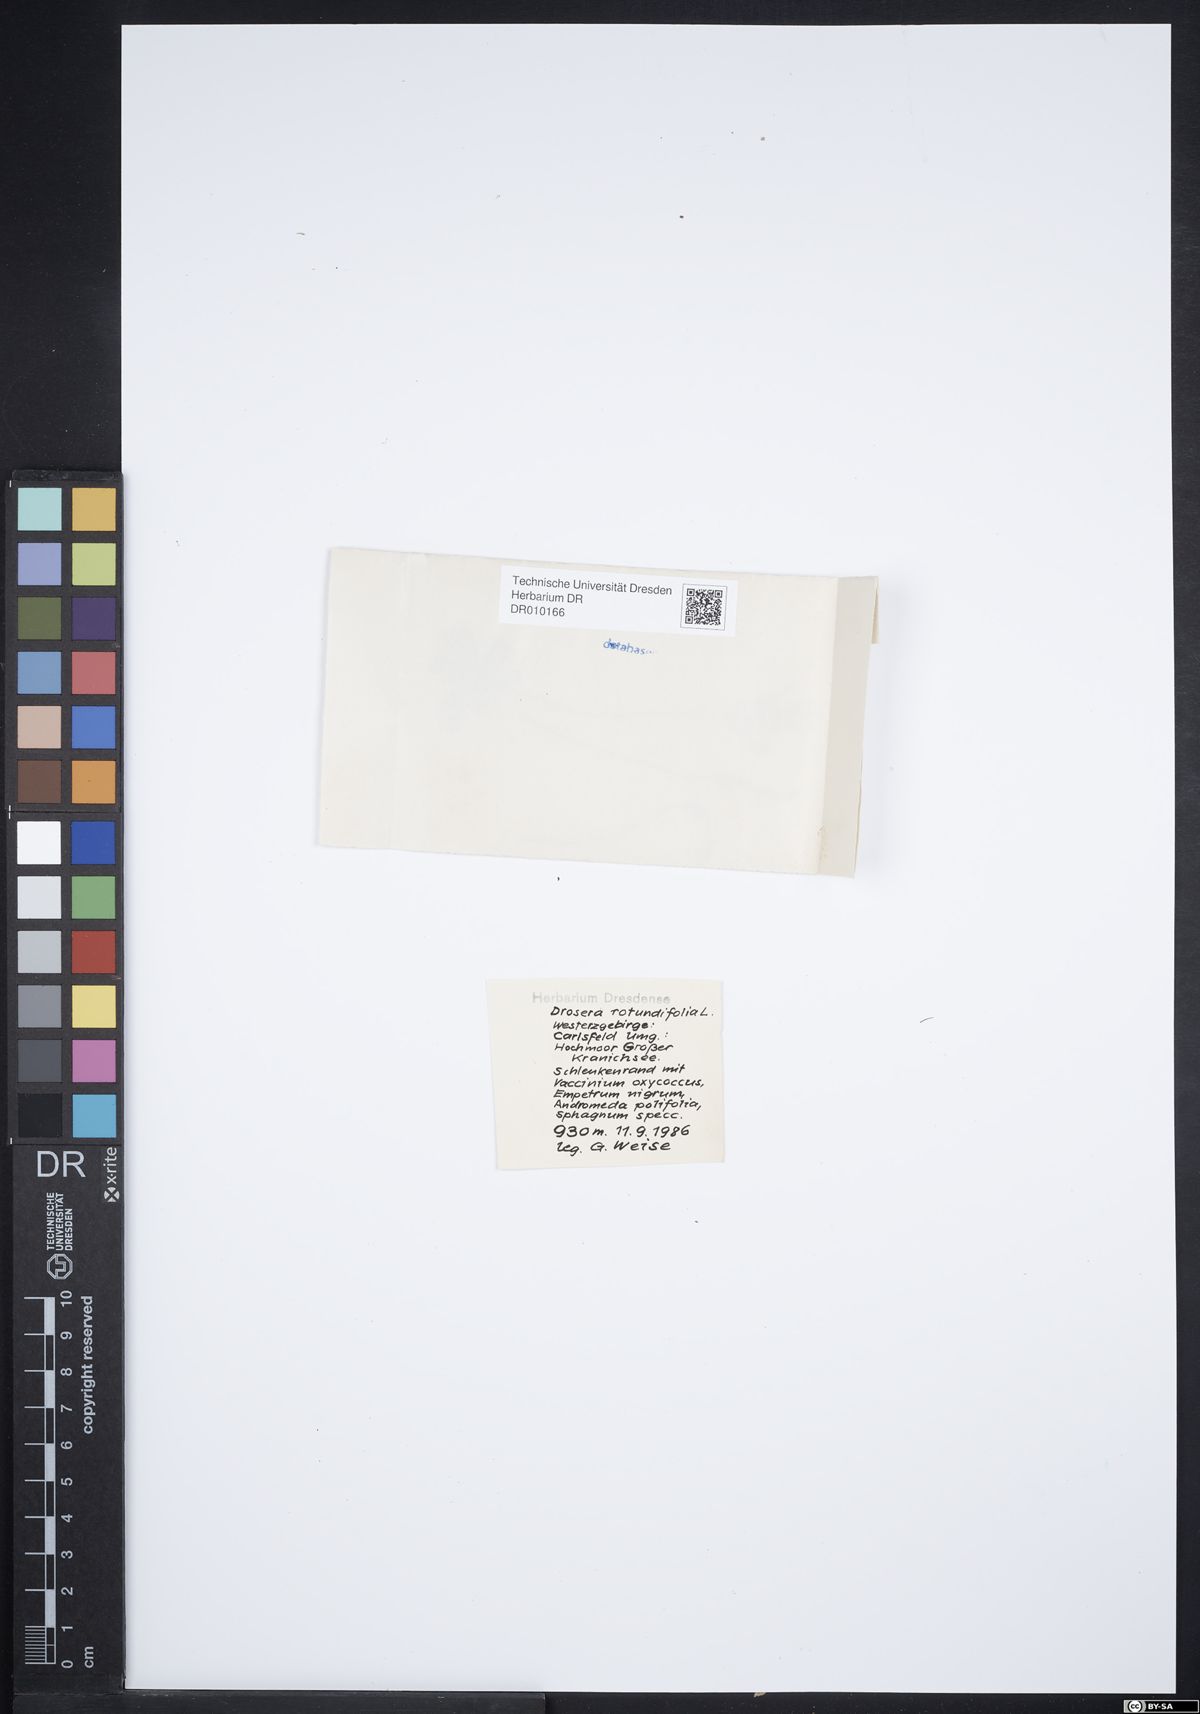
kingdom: Plantae
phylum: Tracheophyta
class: Magnoliopsida
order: Caryophyllales
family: Droseraceae
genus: Drosera
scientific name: Drosera rotundifolia
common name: Round-leaved sundew
